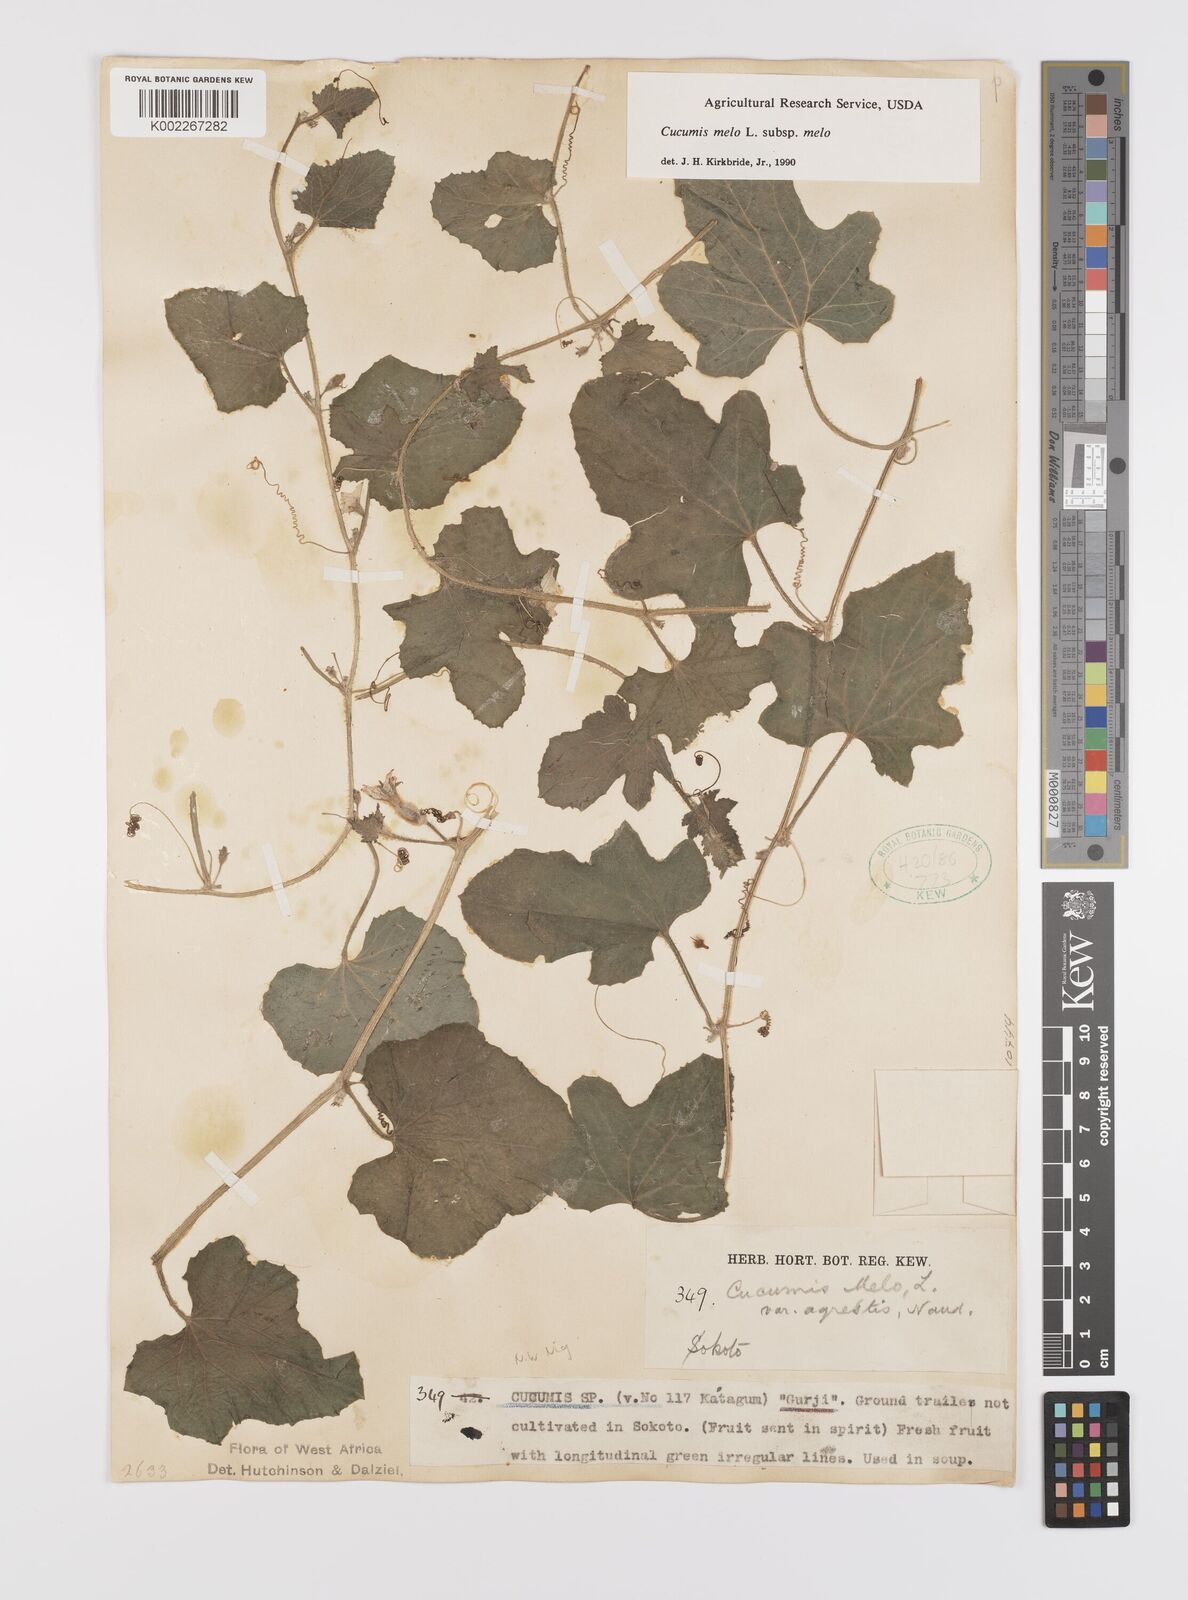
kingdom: Plantae
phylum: Tracheophyta
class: Magnoliopsida
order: Cucurbitales
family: Cucurbitaceae
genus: Cucumis
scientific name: Cucumis melo
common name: Melon
